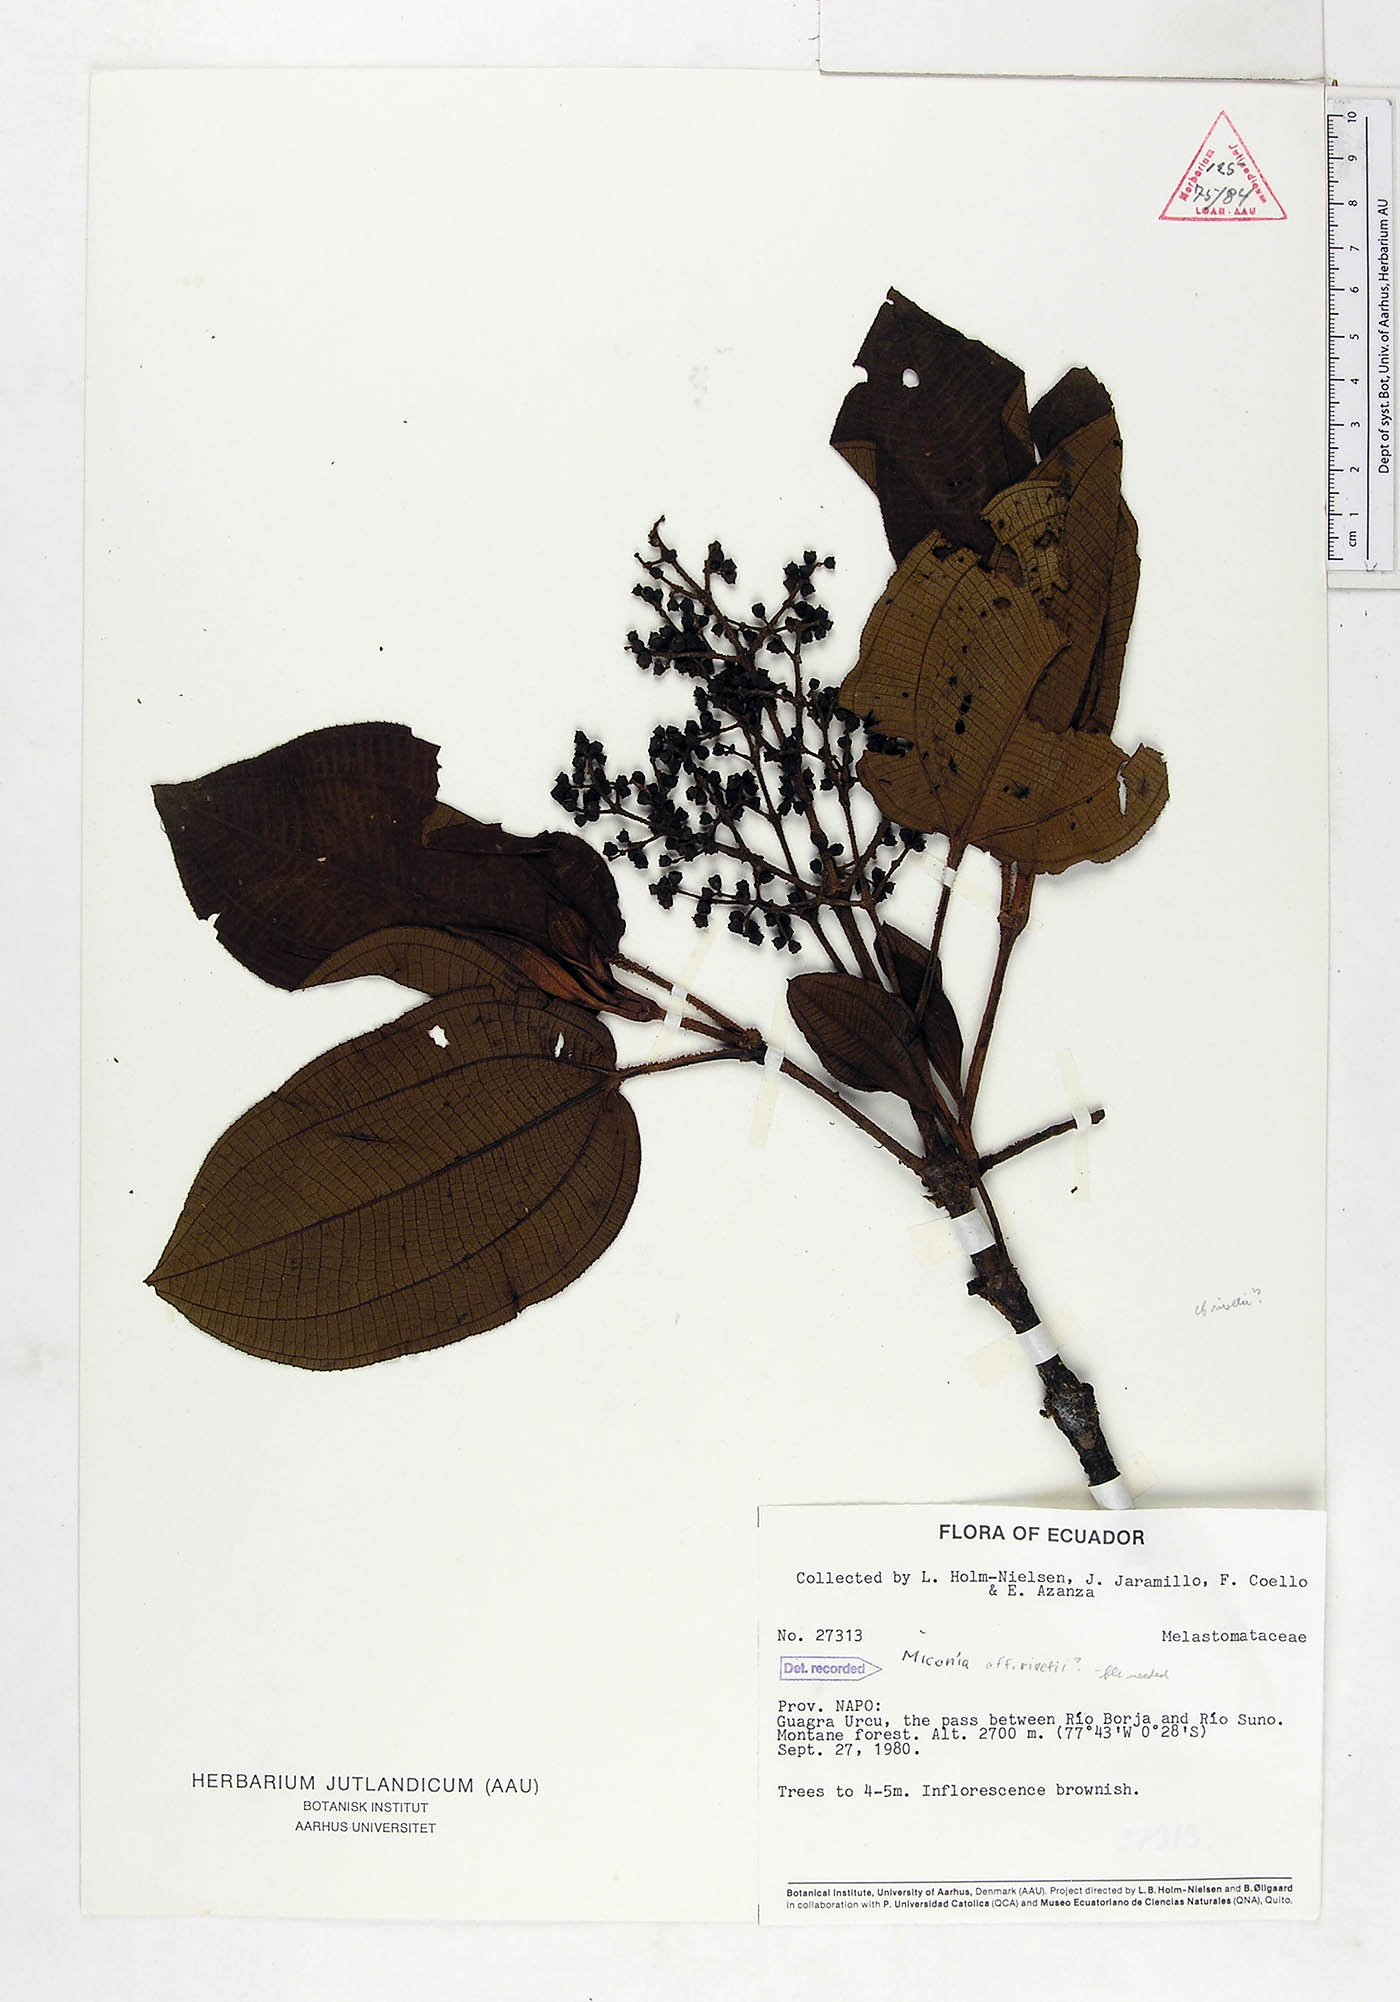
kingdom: Plantae
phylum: Tracheophyta
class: Magnoliopsida
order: Myrtales
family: Melastomataceae
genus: Miconia
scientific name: Miconia rivetii
